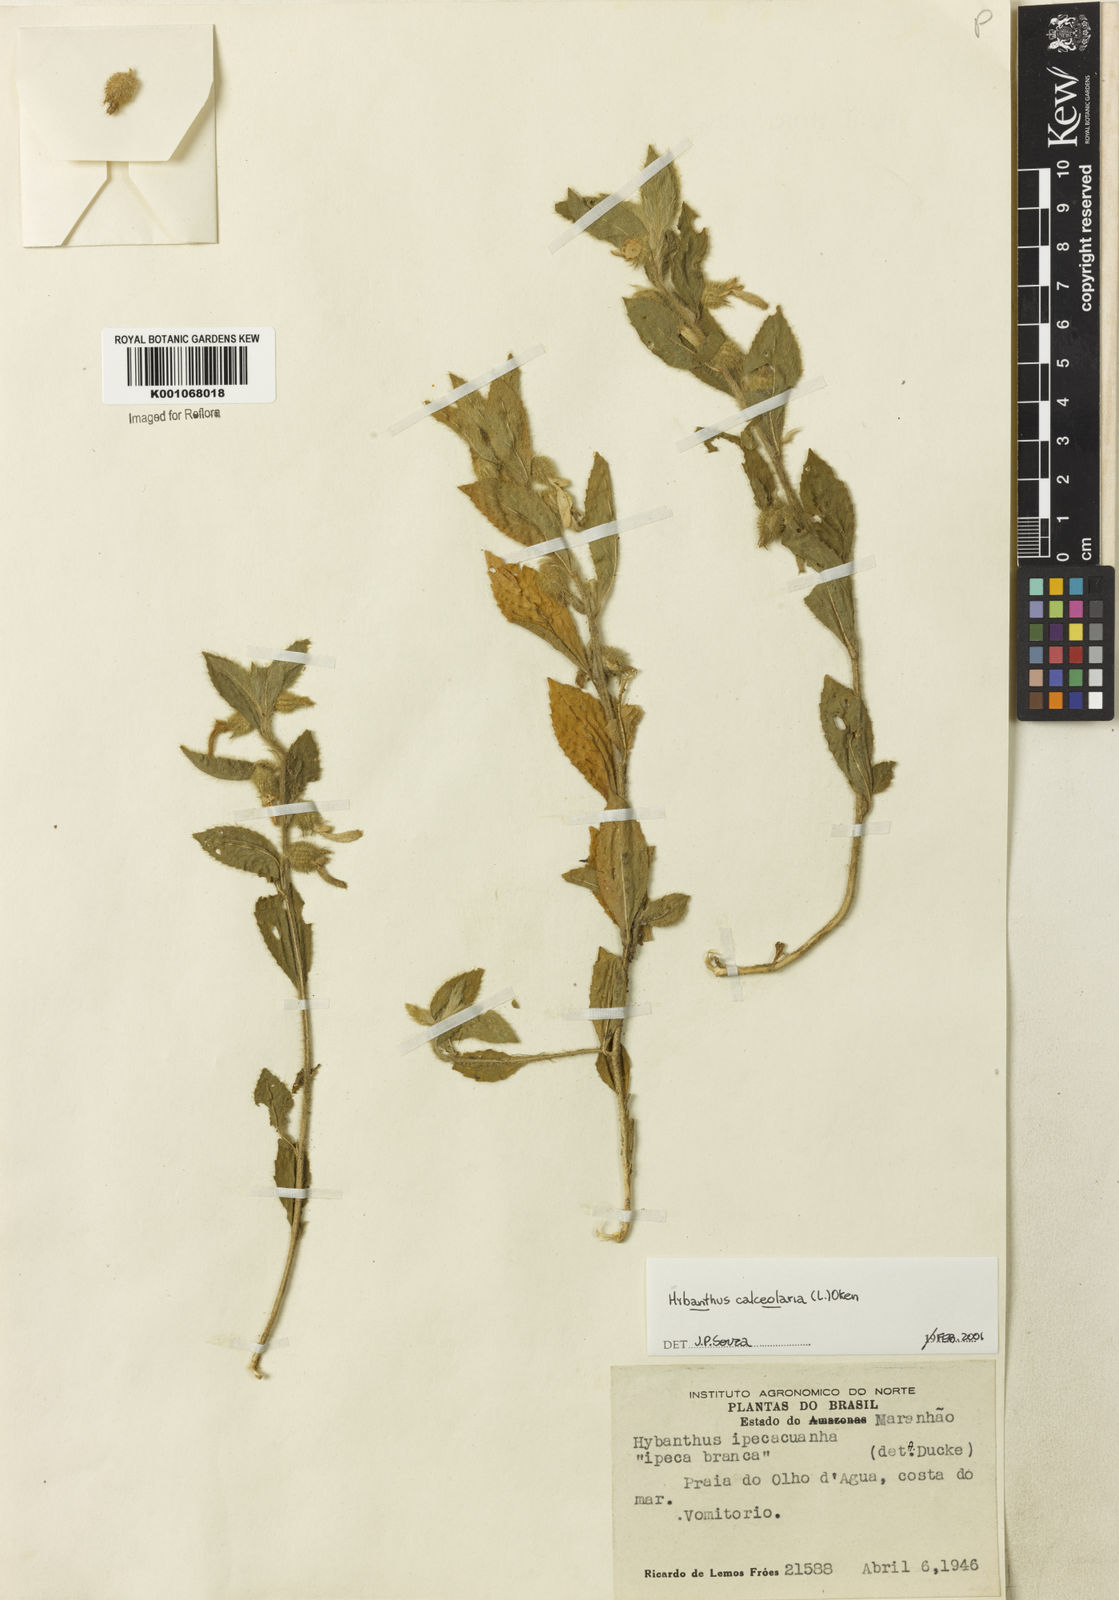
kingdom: Plantae
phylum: Tracheophyta
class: Magnoliopsida
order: Malpighiales
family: Violaceae
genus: Hybanthus
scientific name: Hybanthus
